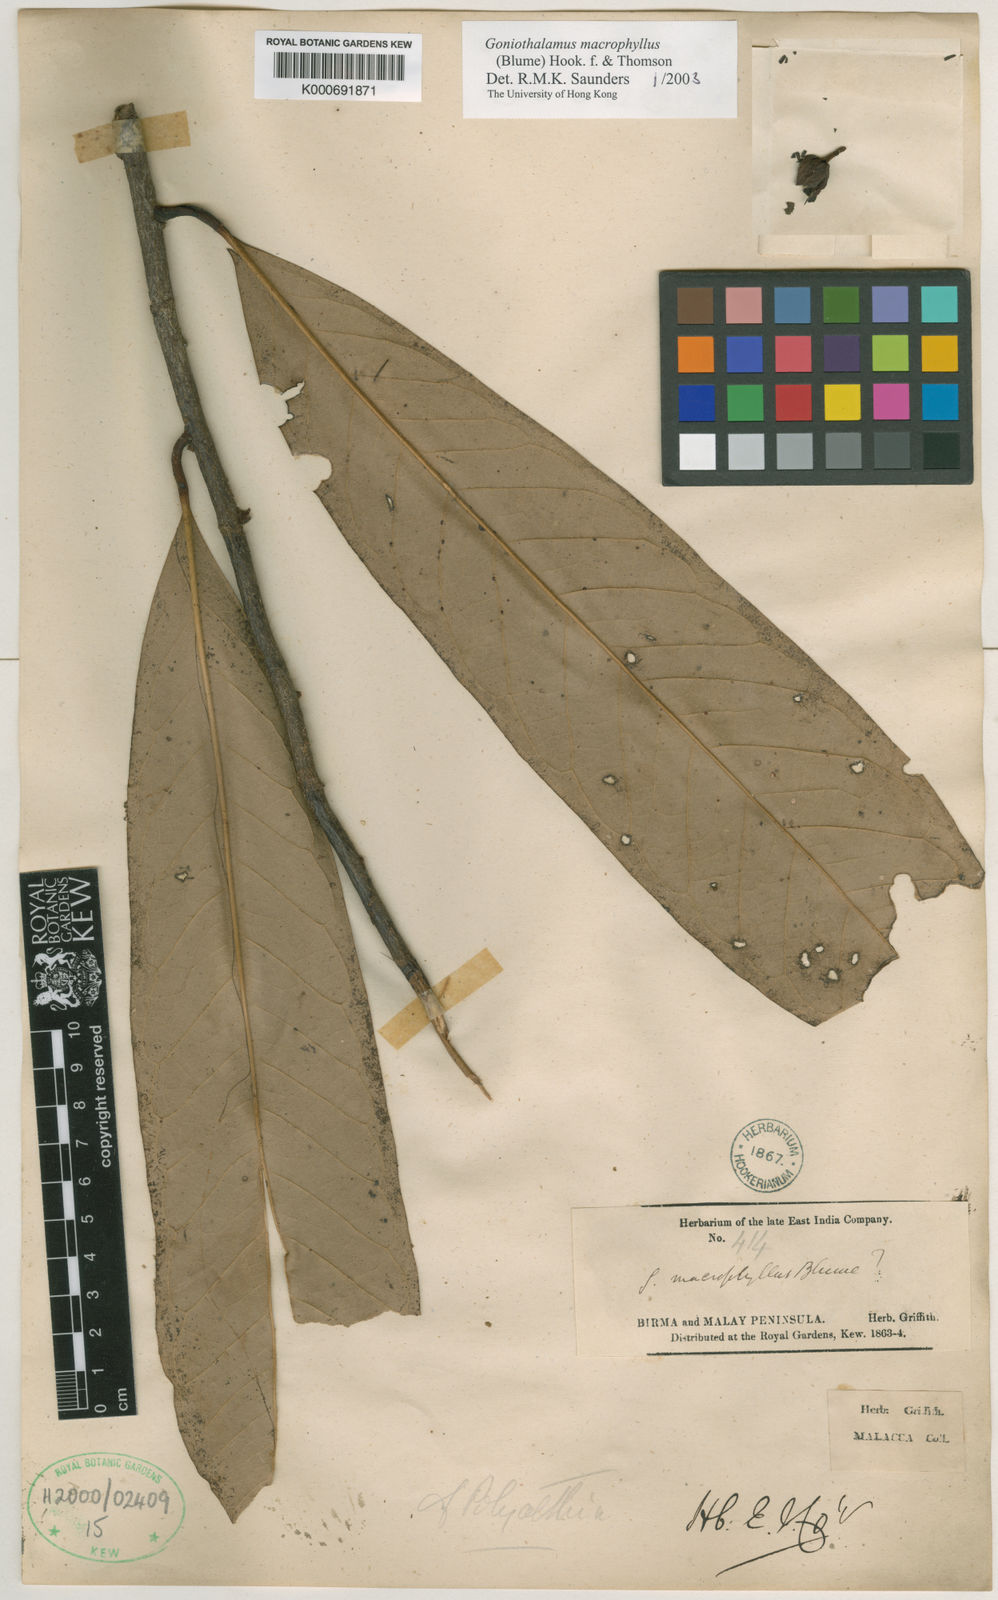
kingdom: Plantae
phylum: Tracheophyta
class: Magnoliopsida
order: Magnoliales
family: Annonaceae
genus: Goniothalamus
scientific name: Goniothalamus
